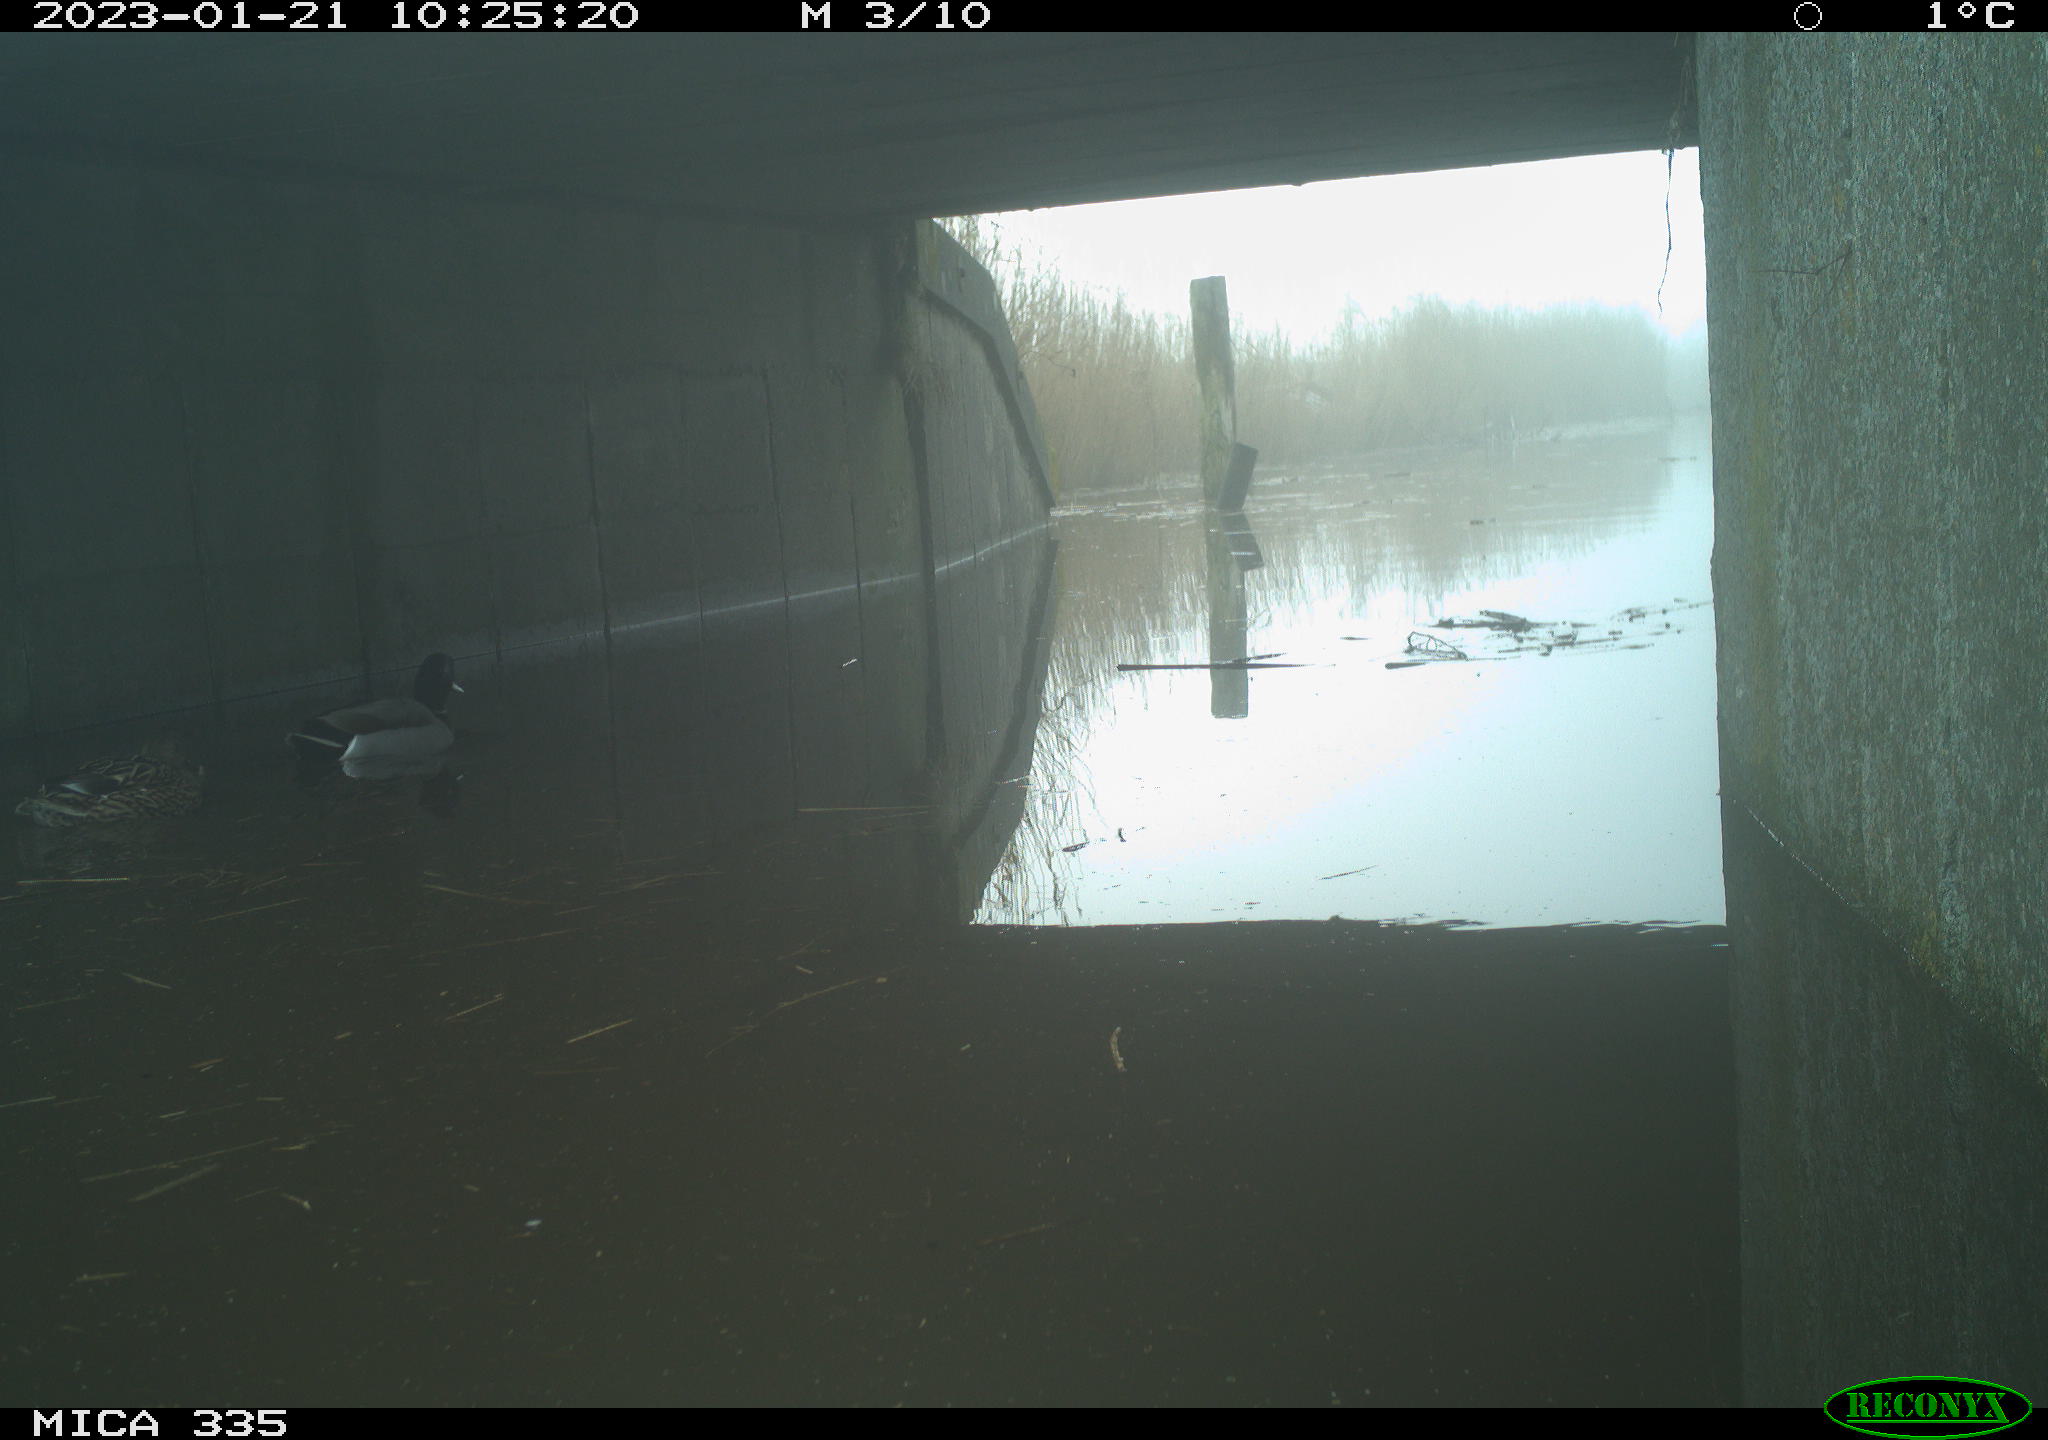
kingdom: Animalia
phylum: Chordata
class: Aves
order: Anseriformes
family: Anatidae
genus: Anas
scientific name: Anas
